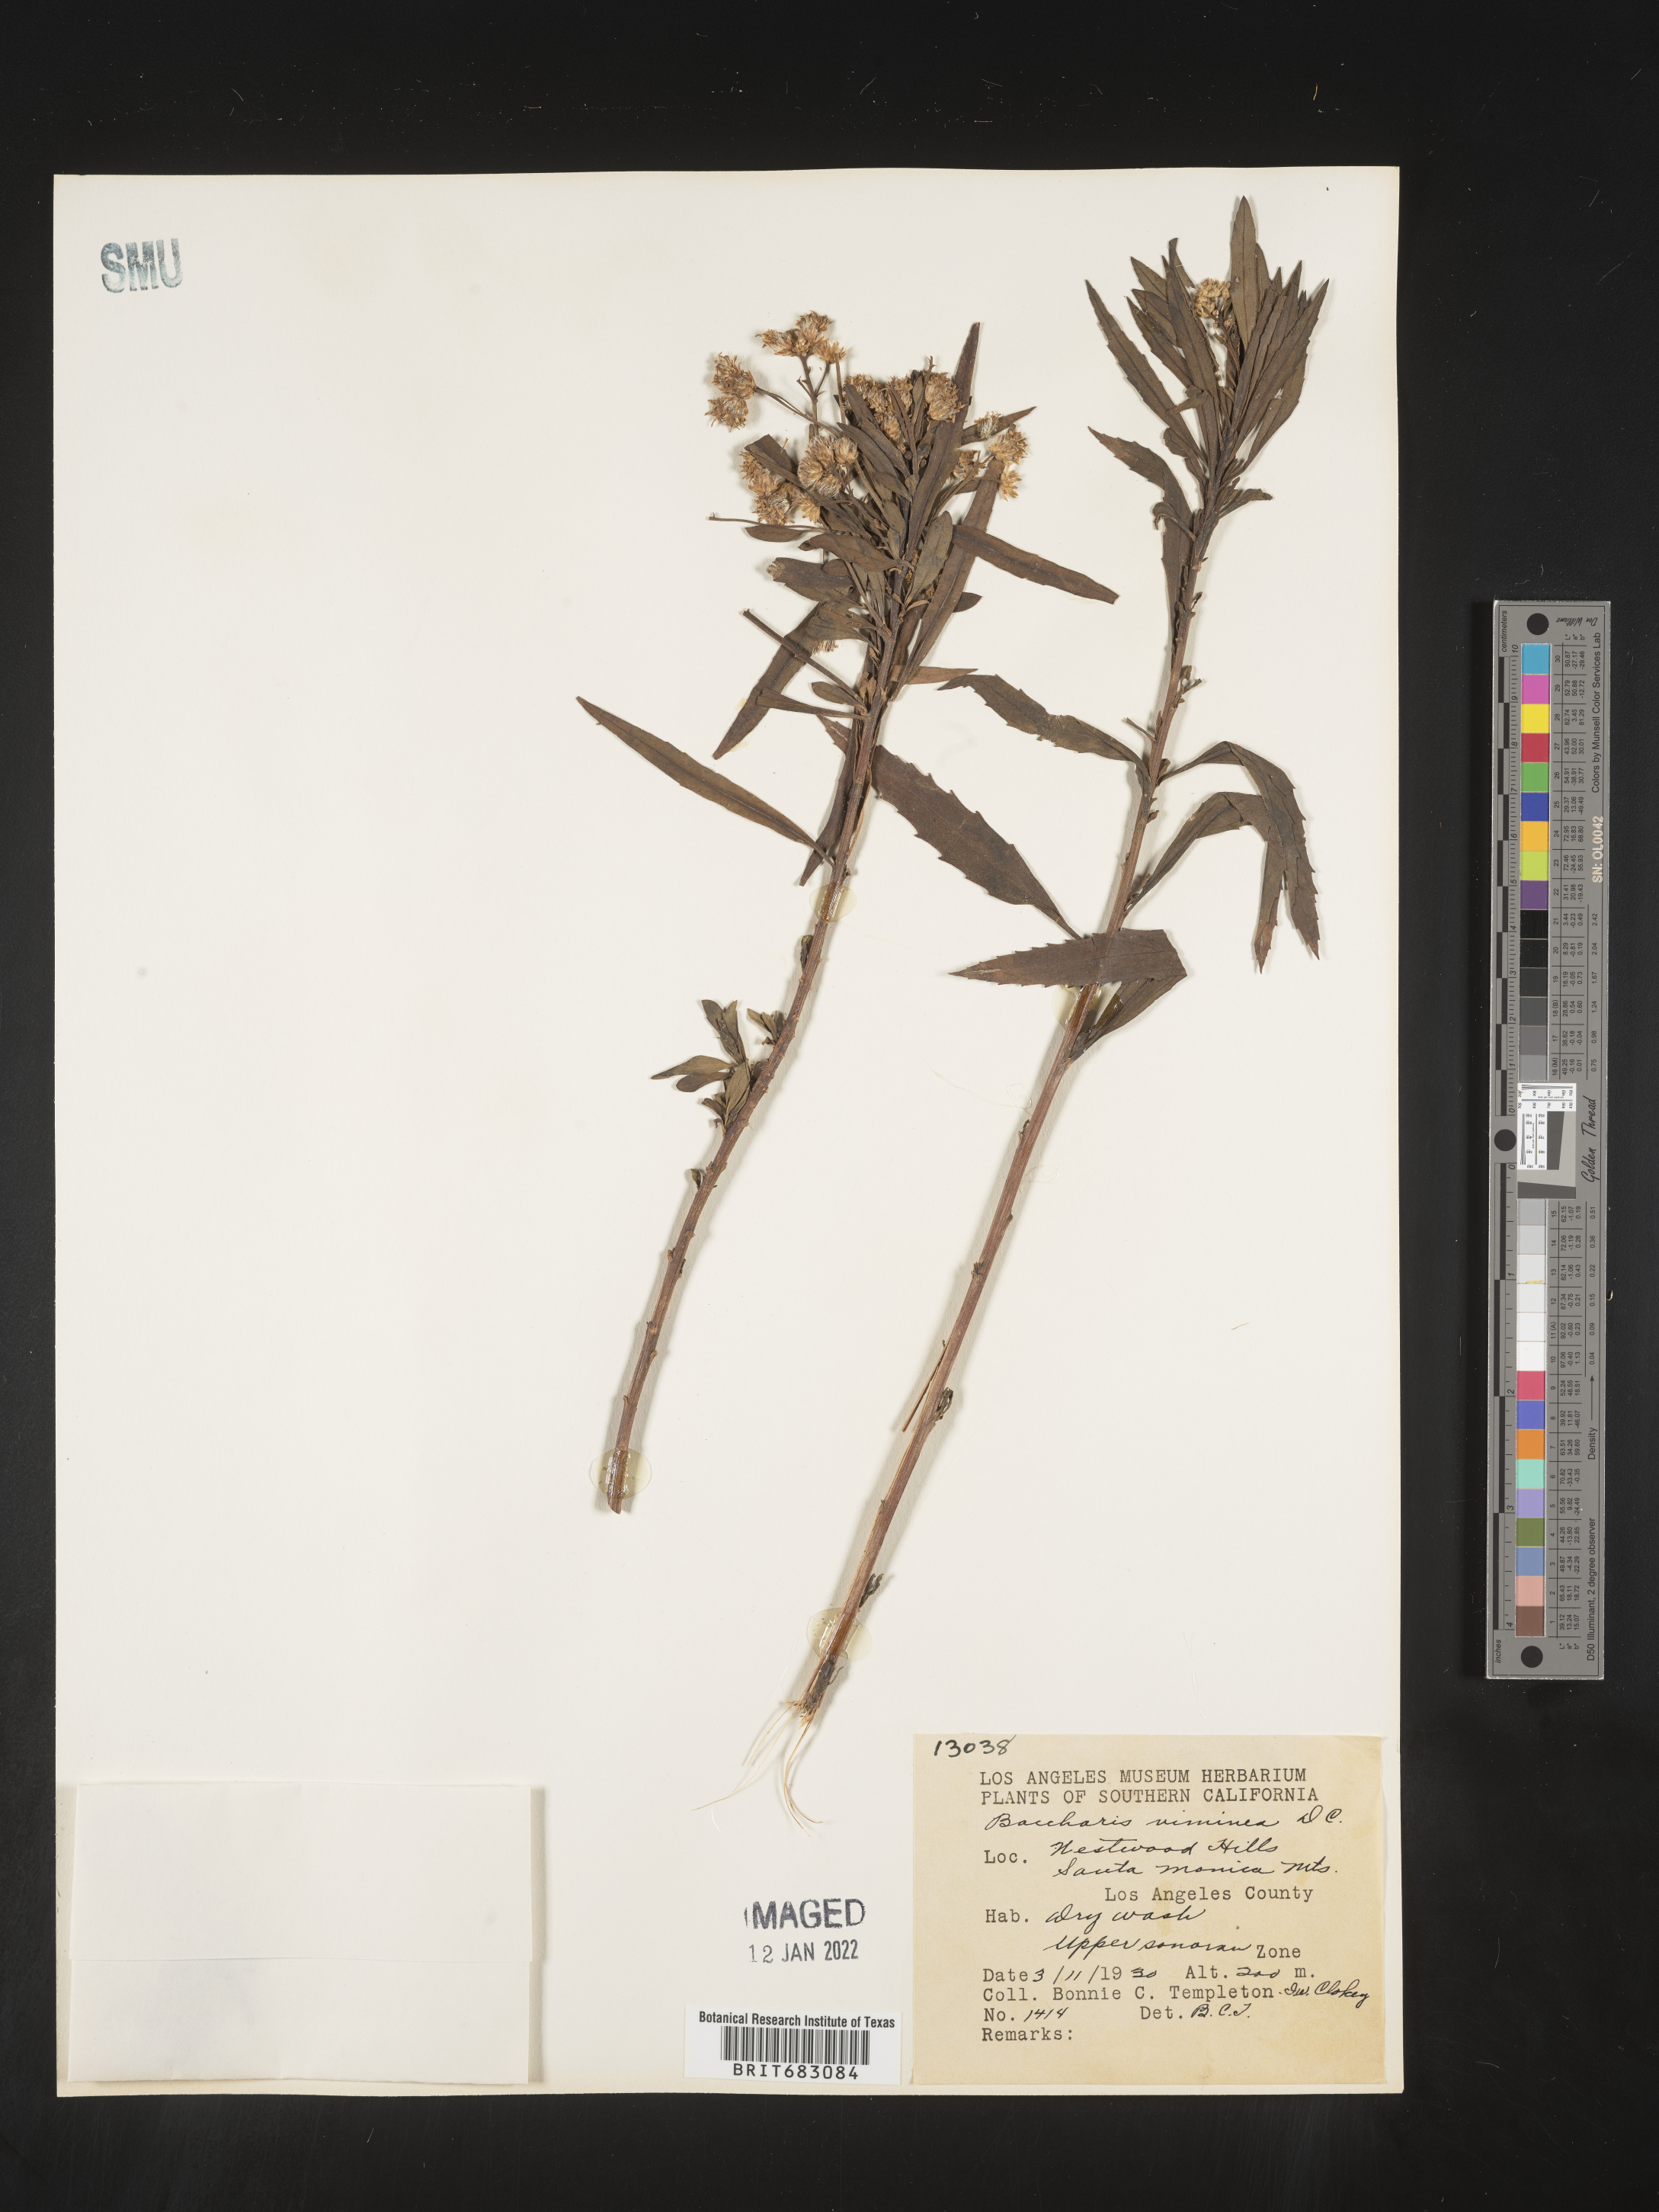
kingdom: Plantae
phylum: Tracheophyta
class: Magnoliopsida
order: Asterales
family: Asteraceae
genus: Baccharis
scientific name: Baccharis salicifolia
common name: Sticky baccharis
